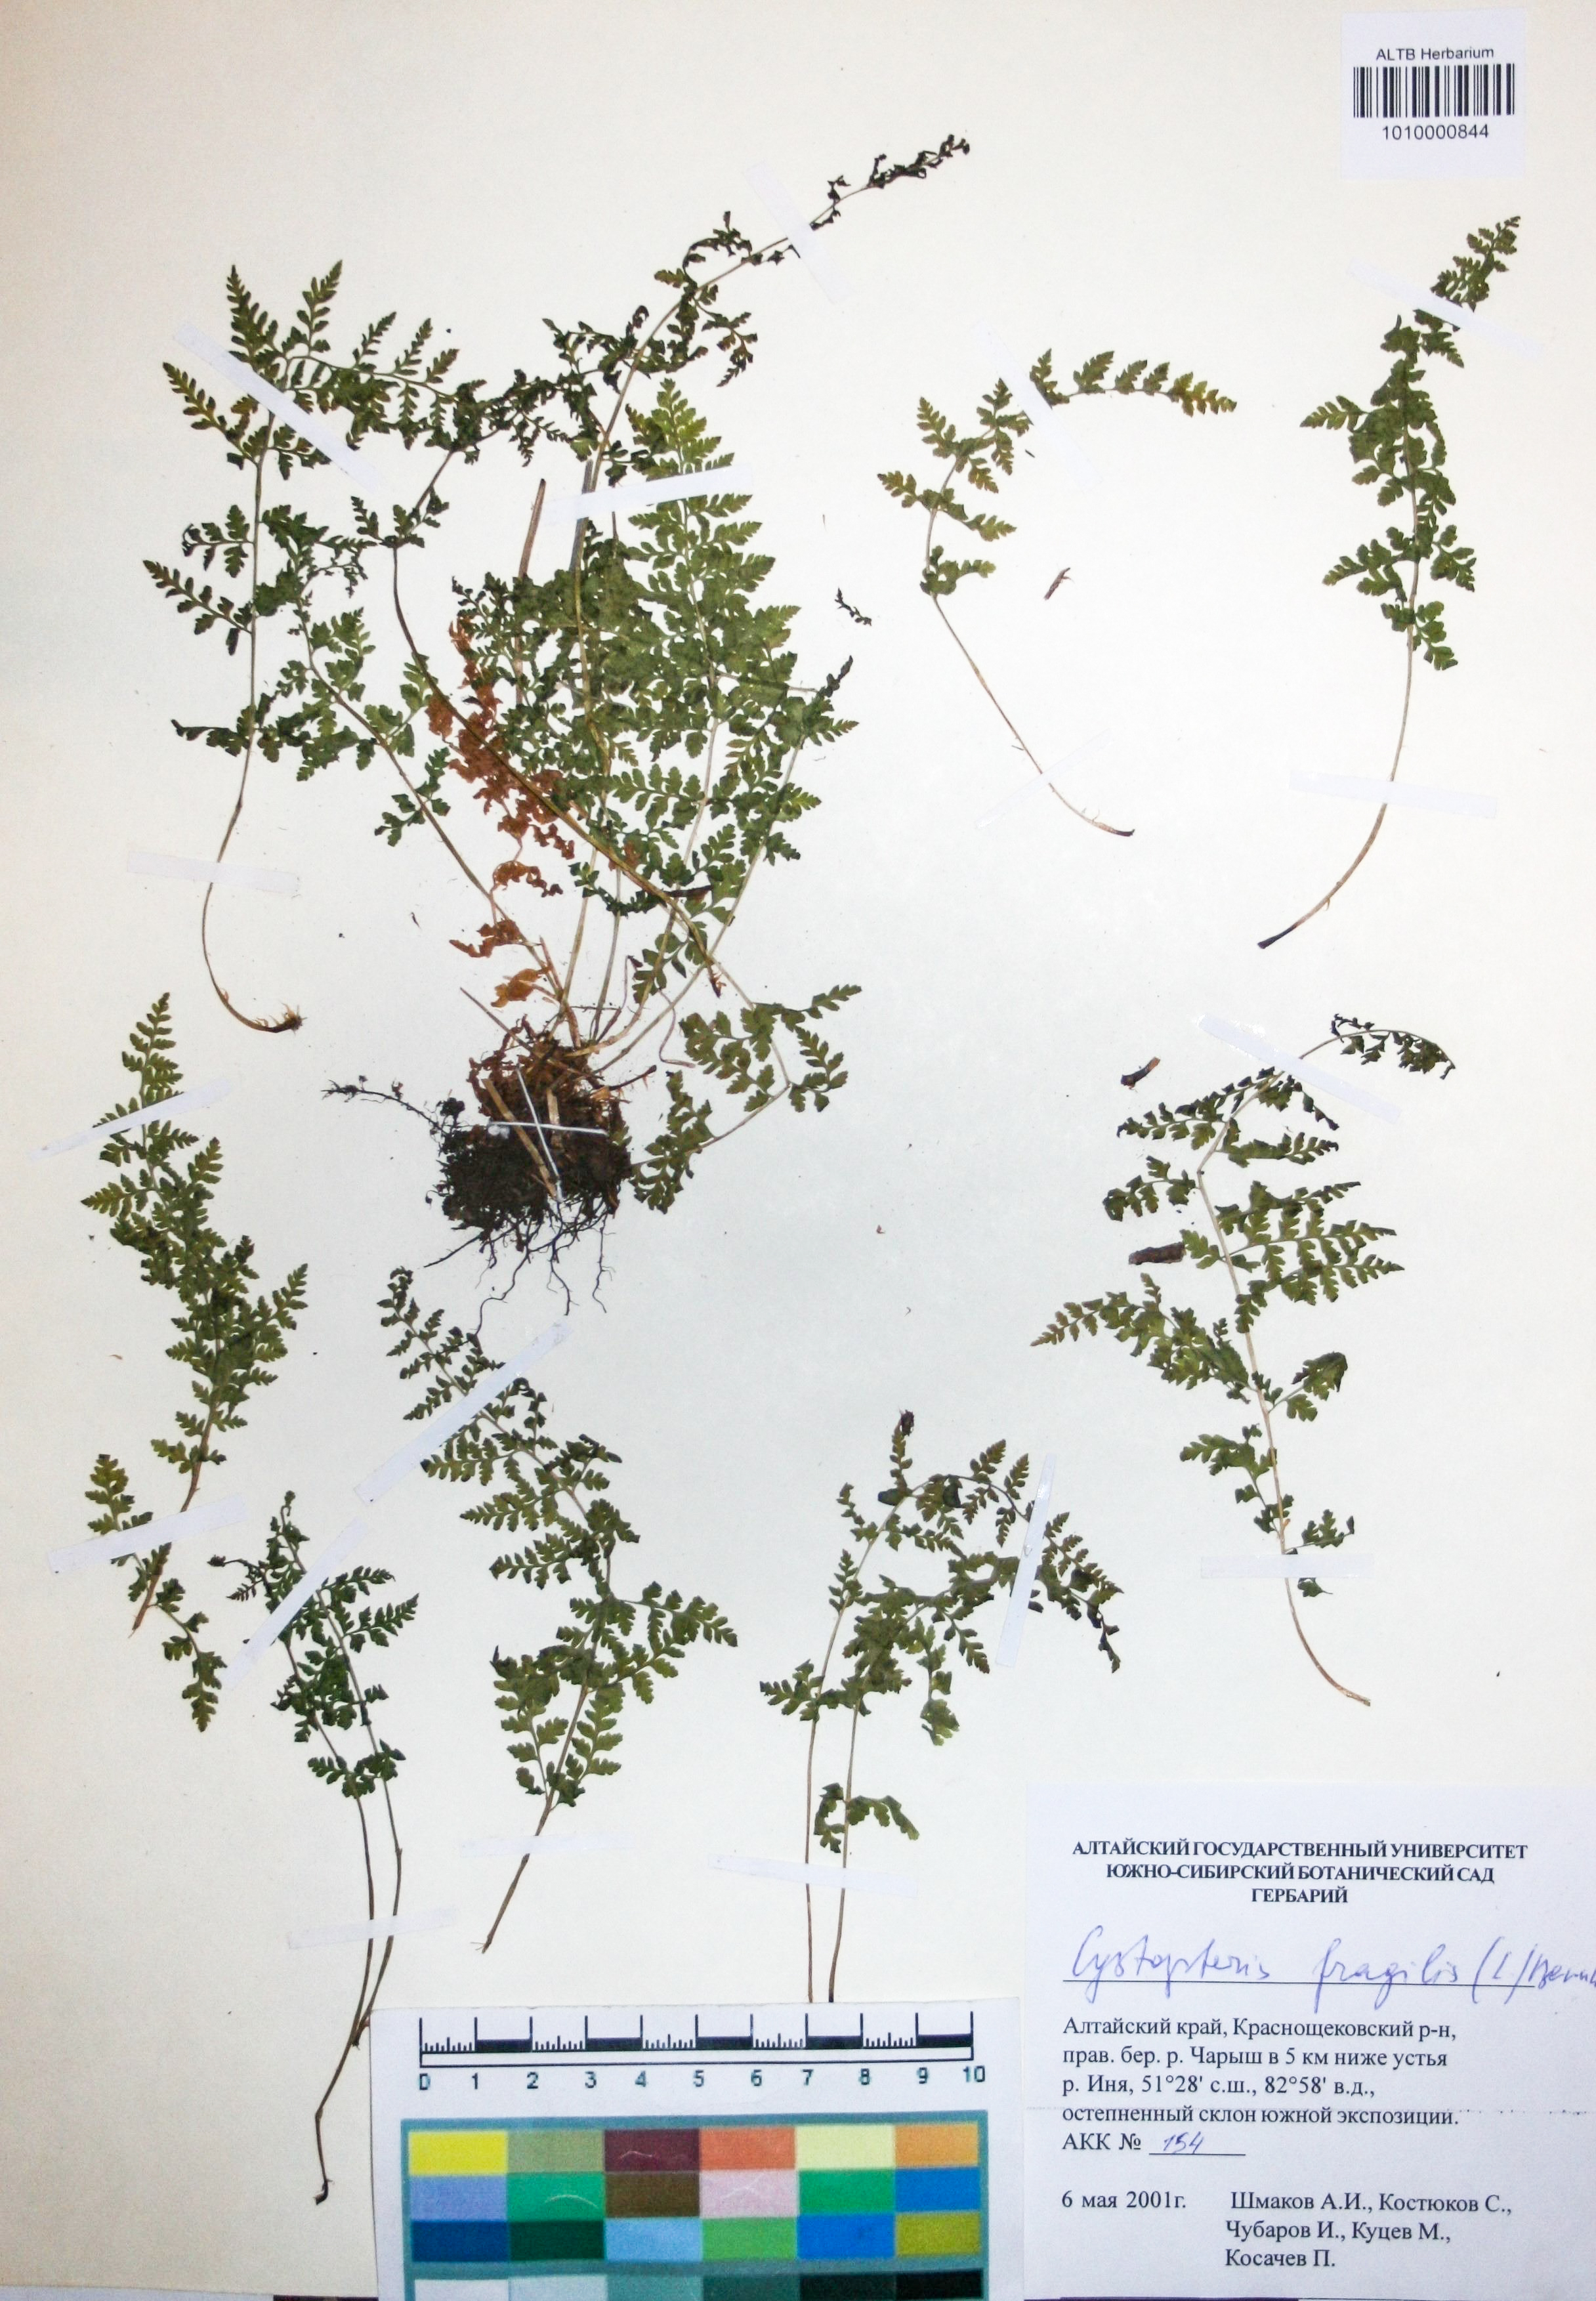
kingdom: Plantae
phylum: Tracheophyta
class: Polypodiopsida
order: Polypodiales
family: Cystopteridaceae
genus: Cystopteris
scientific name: Cystopteris fragilis
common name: Brittle bladder fern
